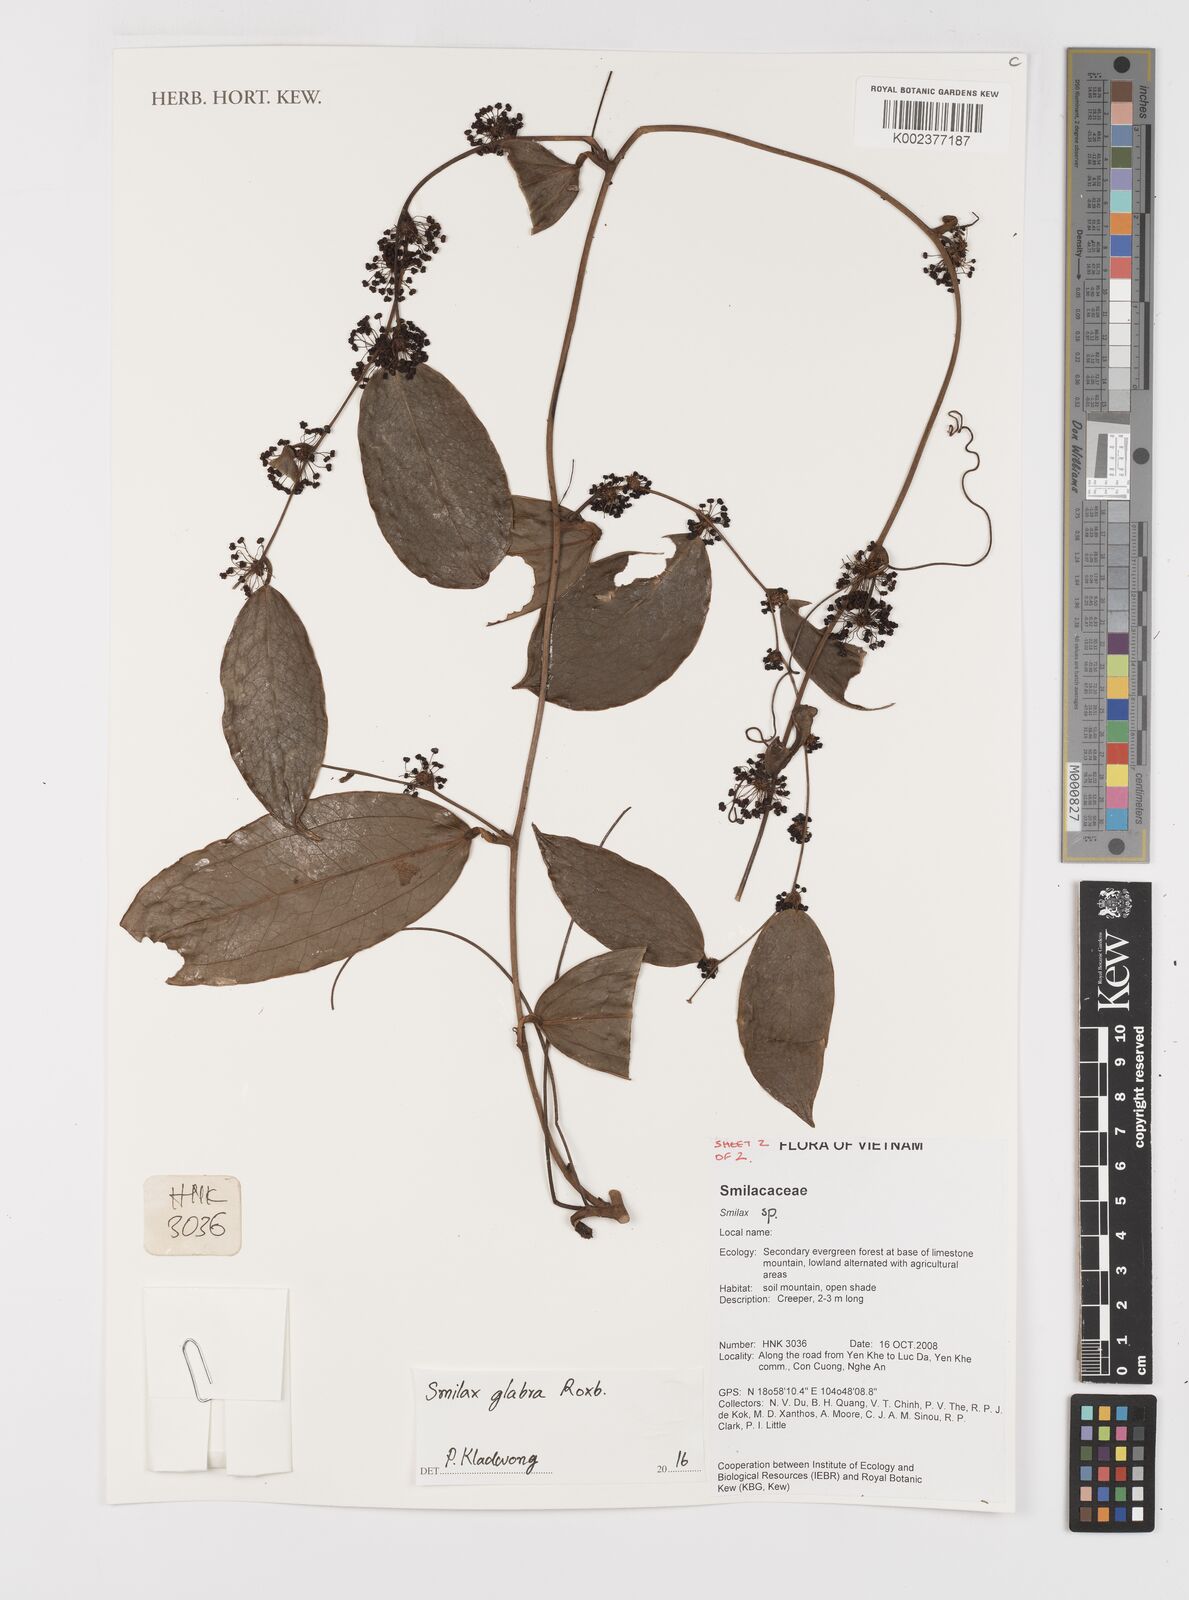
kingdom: Plantae
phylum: Tracheophyta
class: Liliopsida
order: Liliales
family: Smilacaceae
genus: Smilax
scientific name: Smilax glabra
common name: Chinese smilax
